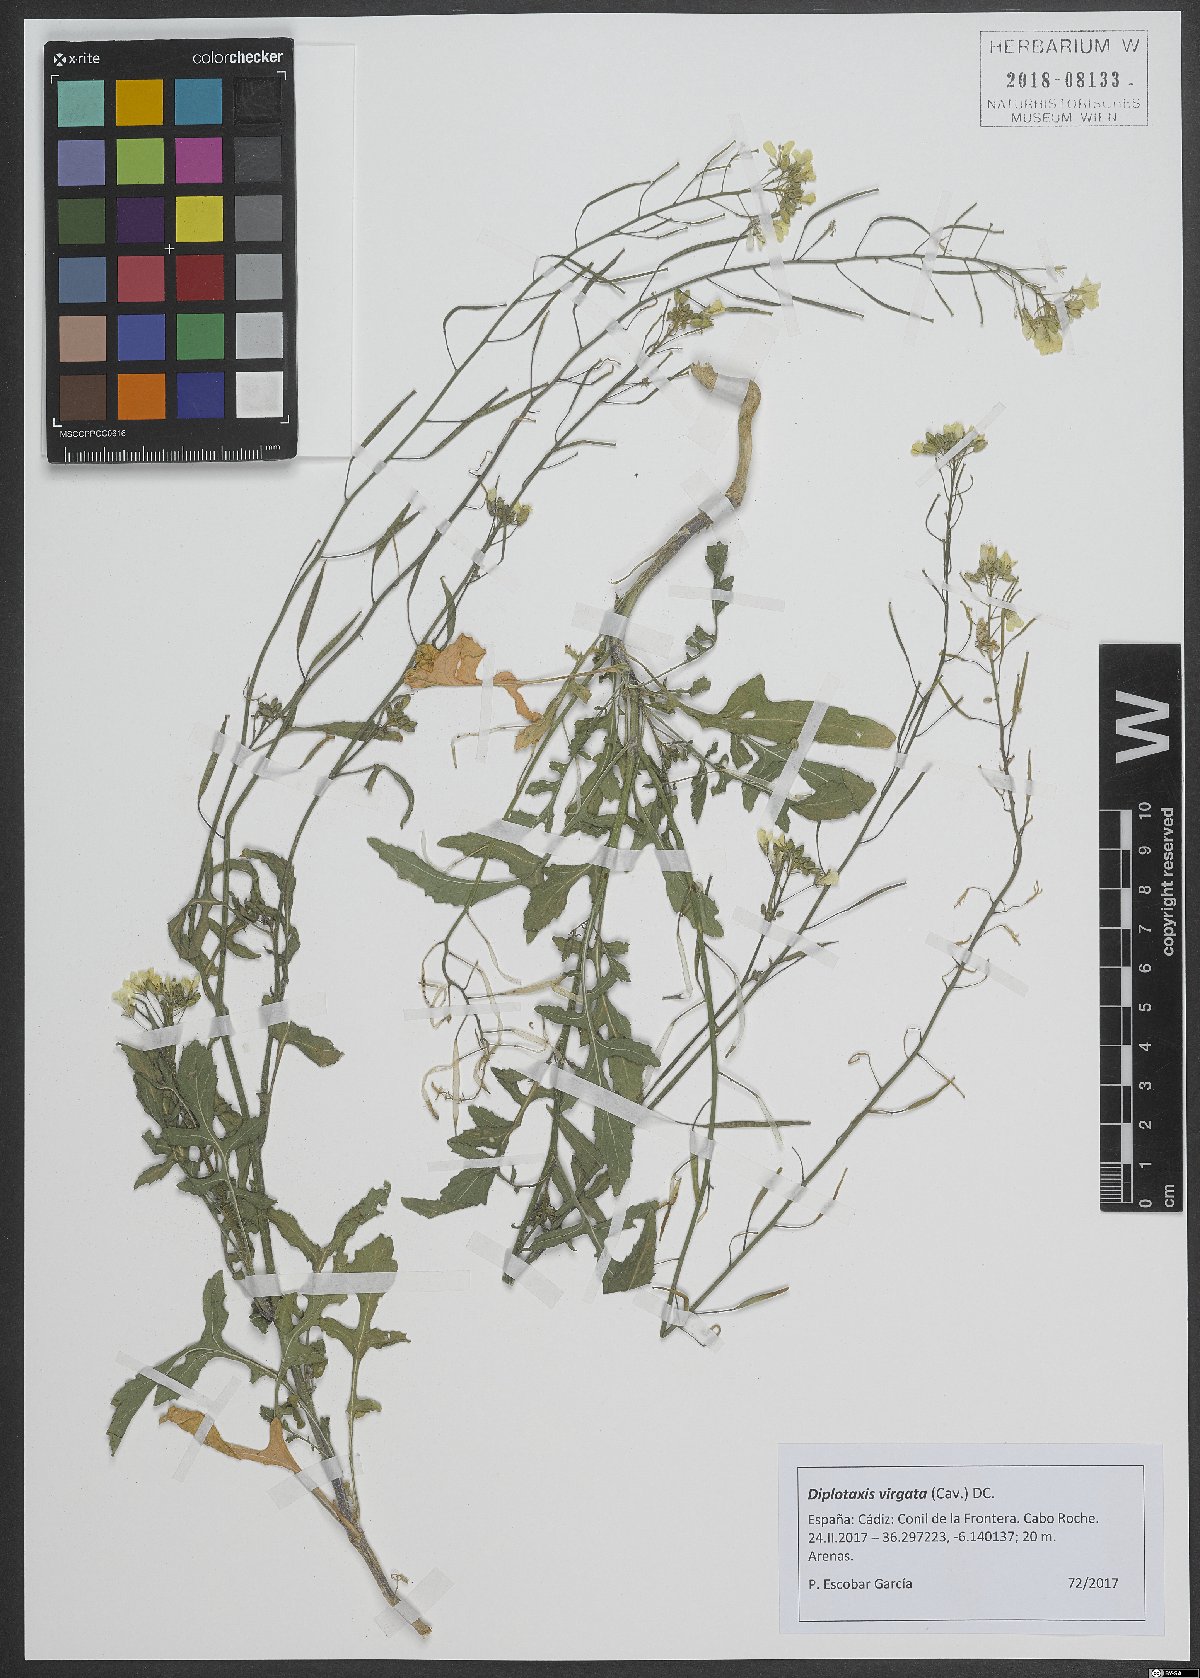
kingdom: Plantae
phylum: Tracheophyta
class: Magnoliopsida
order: Brassicales
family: Brassicaceae
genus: Diplotaxis
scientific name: Diplotaxis virgata
